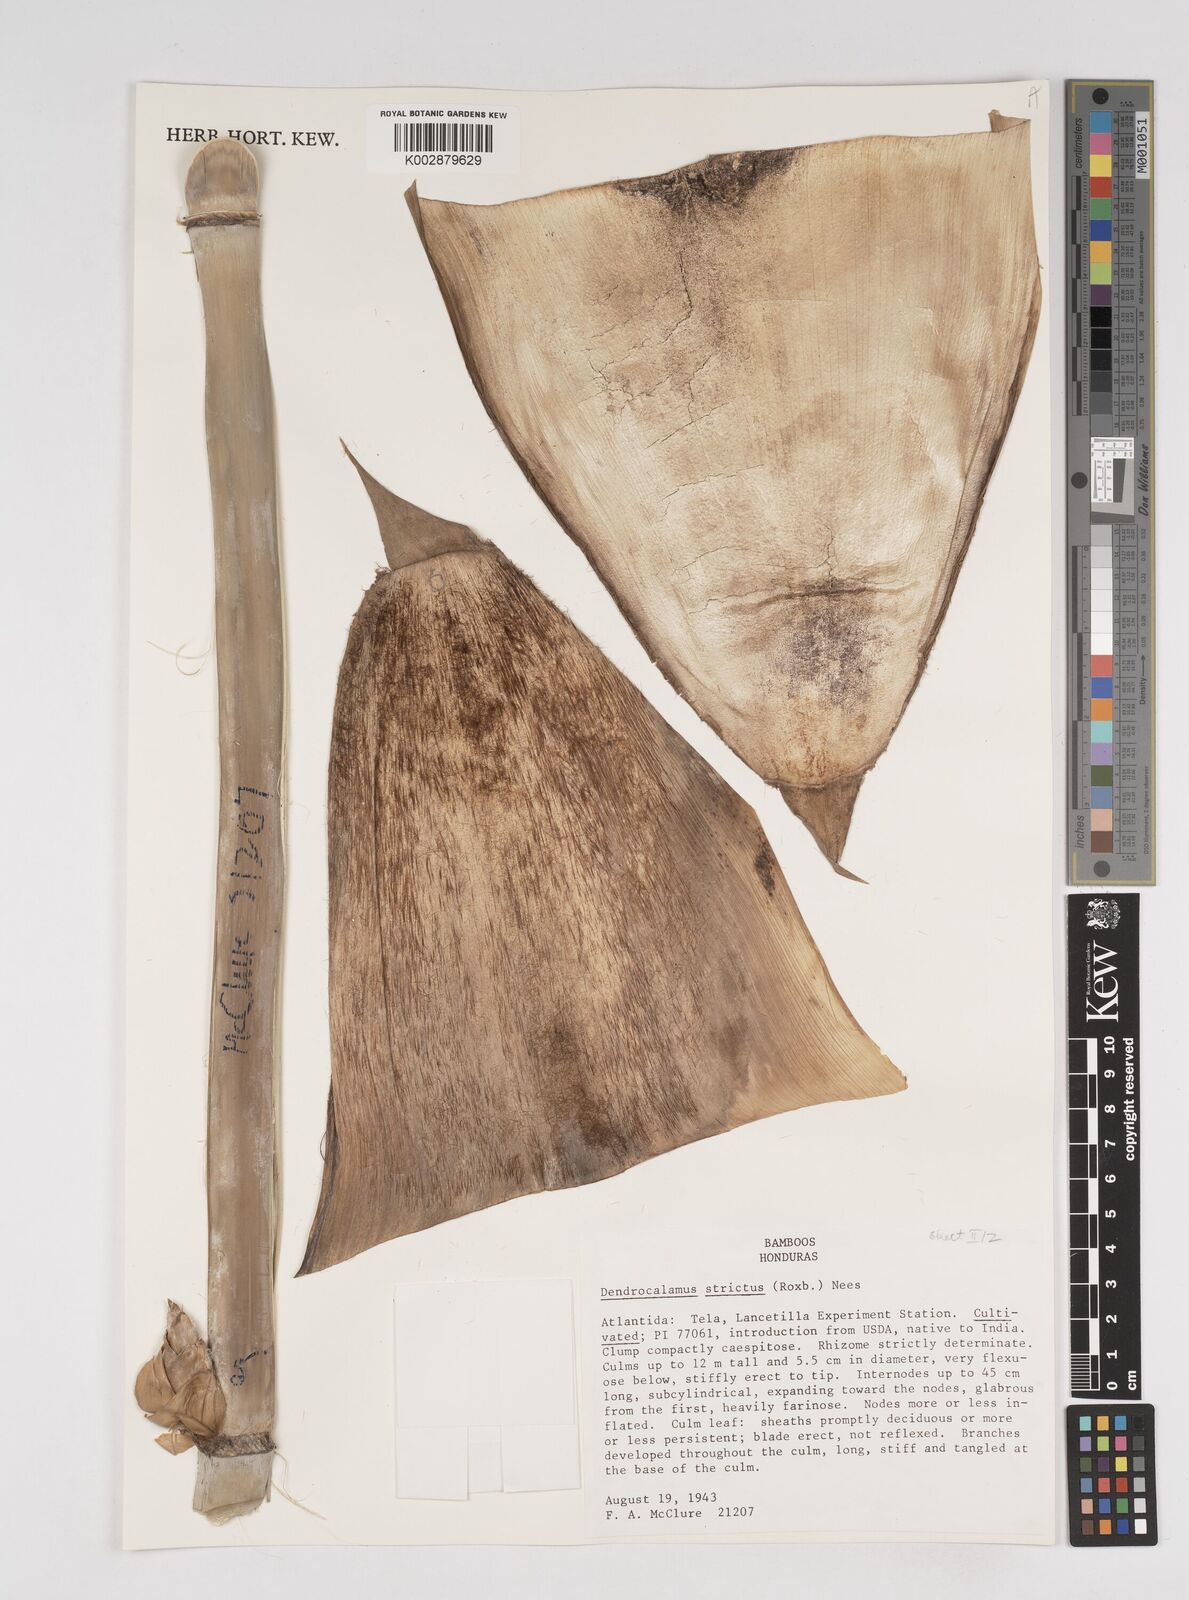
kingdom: Plantae
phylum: Tracheophyta
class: Liliopsida
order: Poales
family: Poaceae
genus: Dendrocalamus
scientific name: Dendrocalamus strictus
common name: Male bamboo
